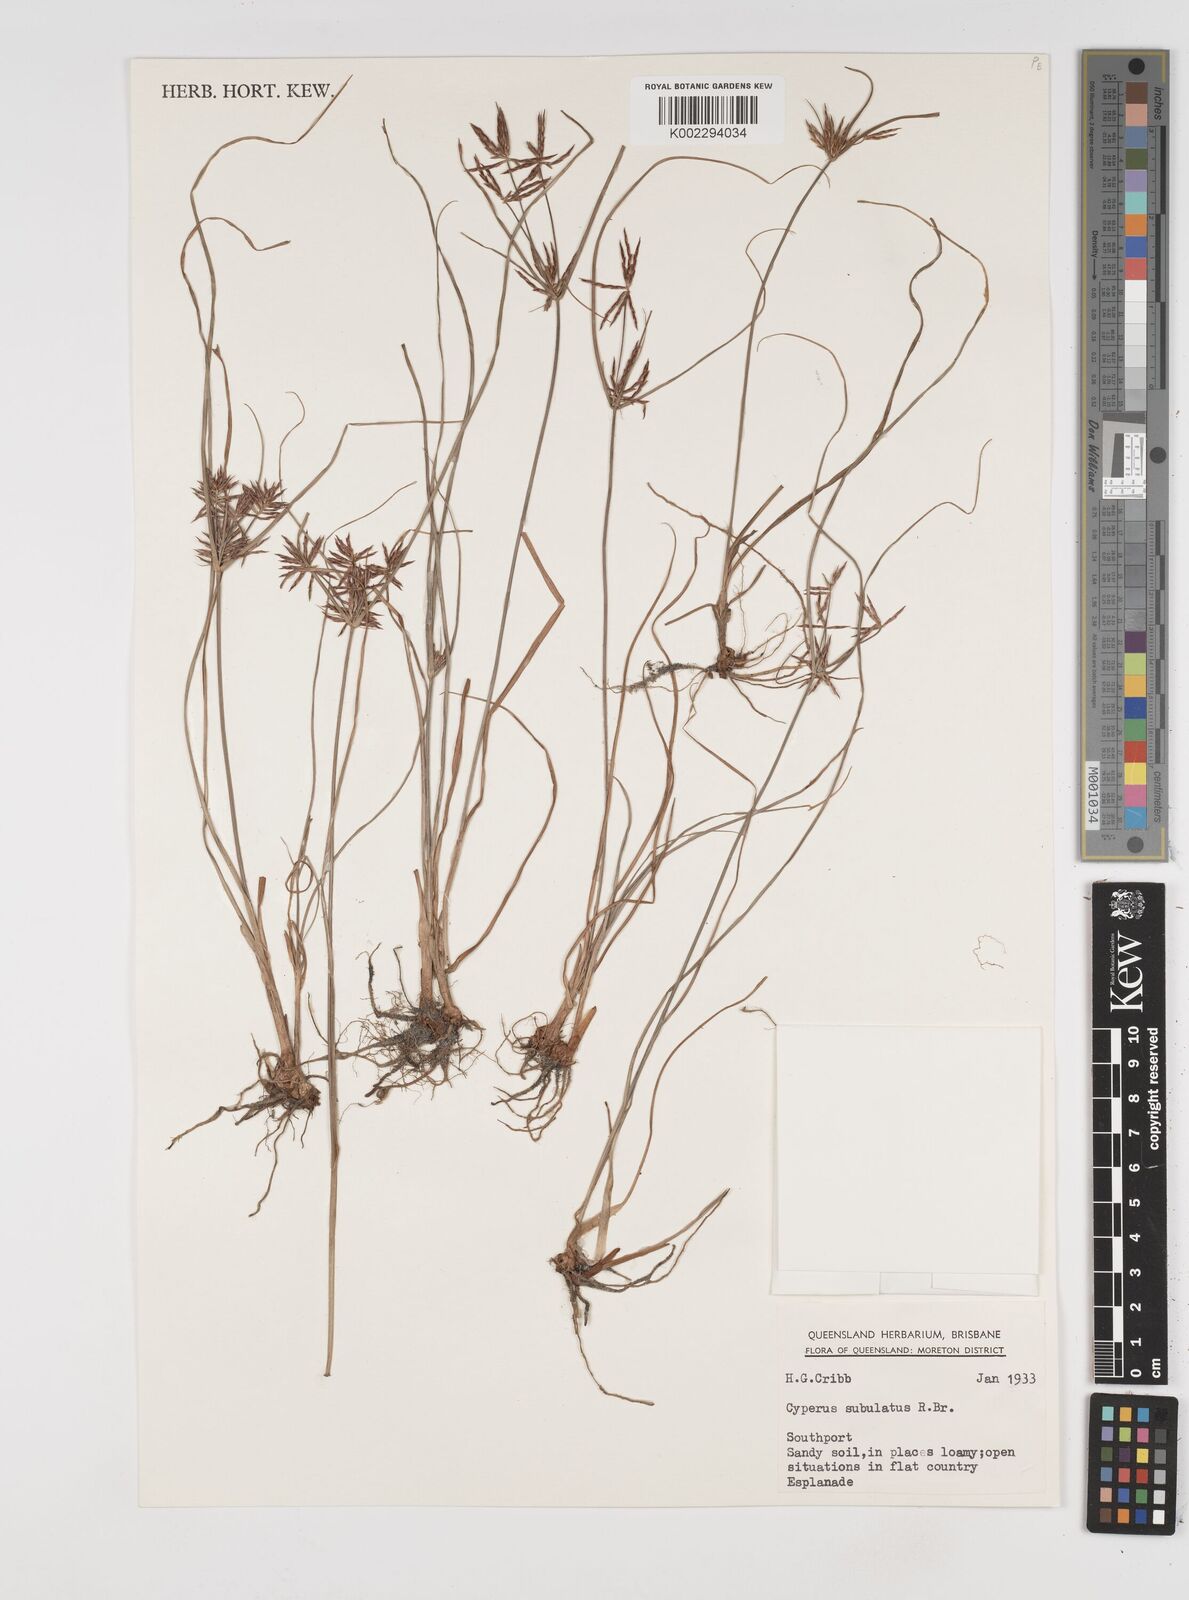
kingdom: Plantae
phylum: Tracheophyta
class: Liliopsida
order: Poales
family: Cyperaceae
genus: Cyperus
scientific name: Cyperus subulatus
